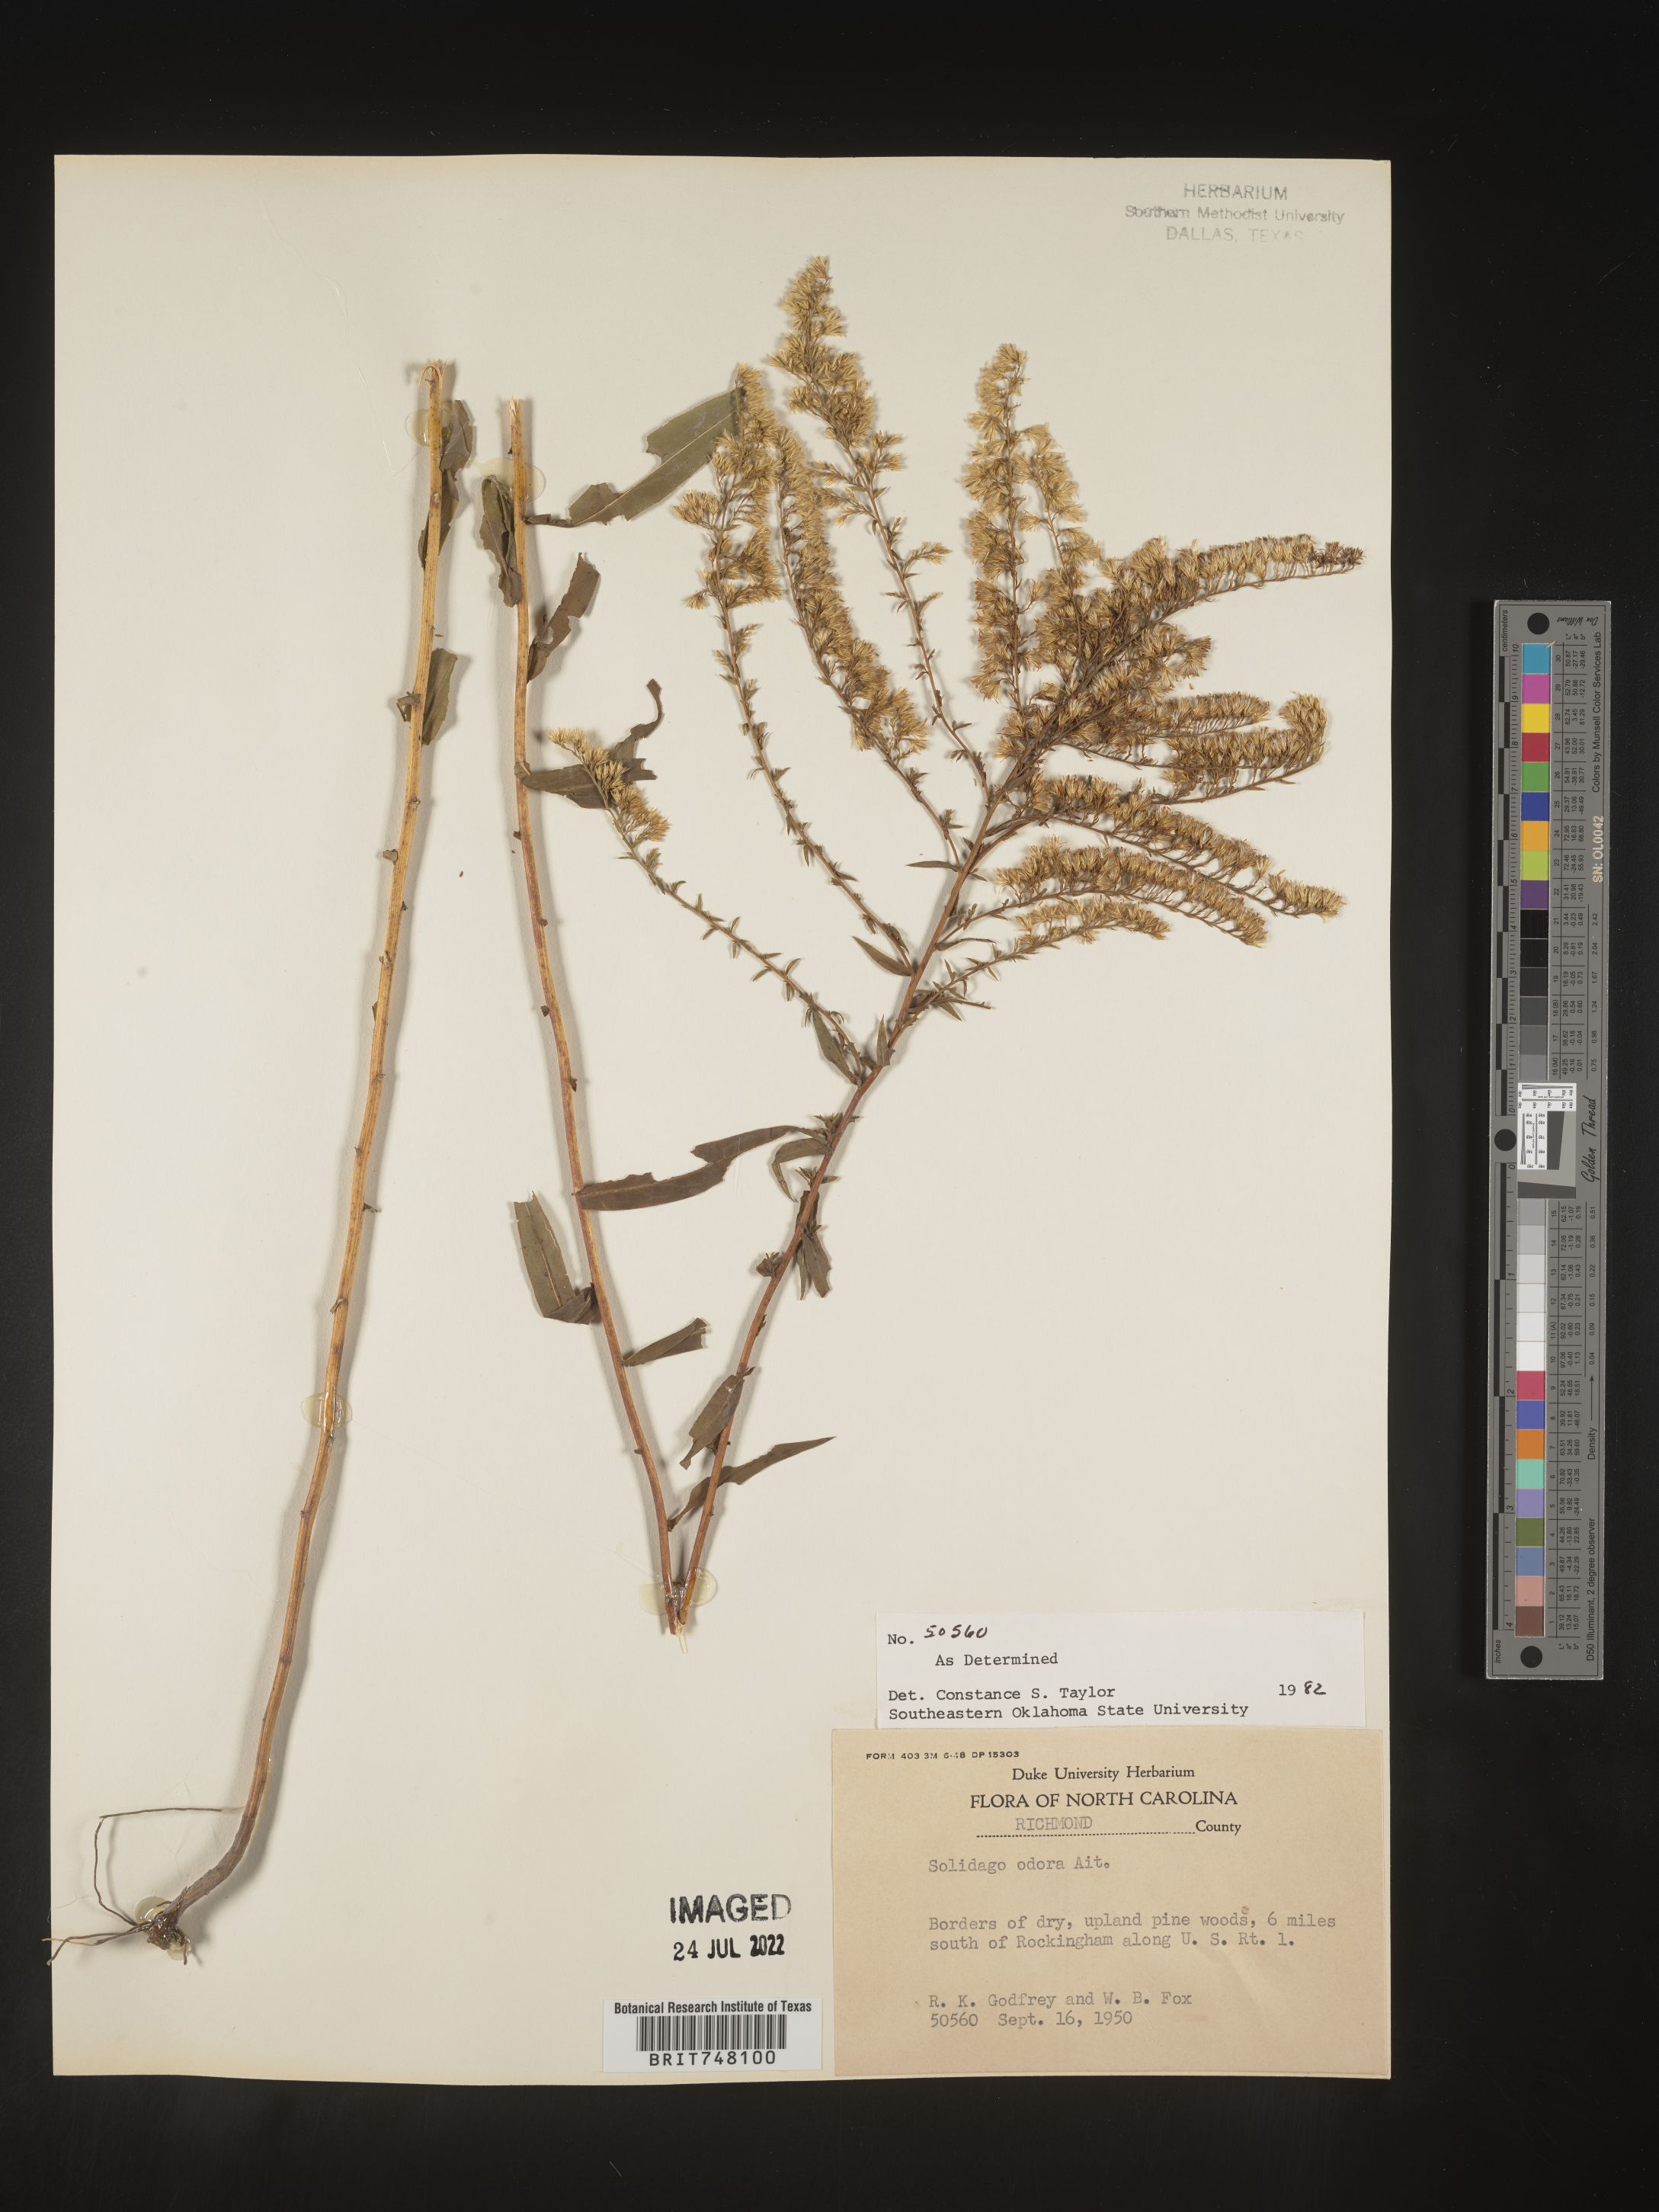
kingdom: Plantae
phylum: Tracheophyta
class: Magnoliopsida
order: Asterales
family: Asteraceae
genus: Solidago
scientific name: Solidago odora
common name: Anise-scented goldenrod
